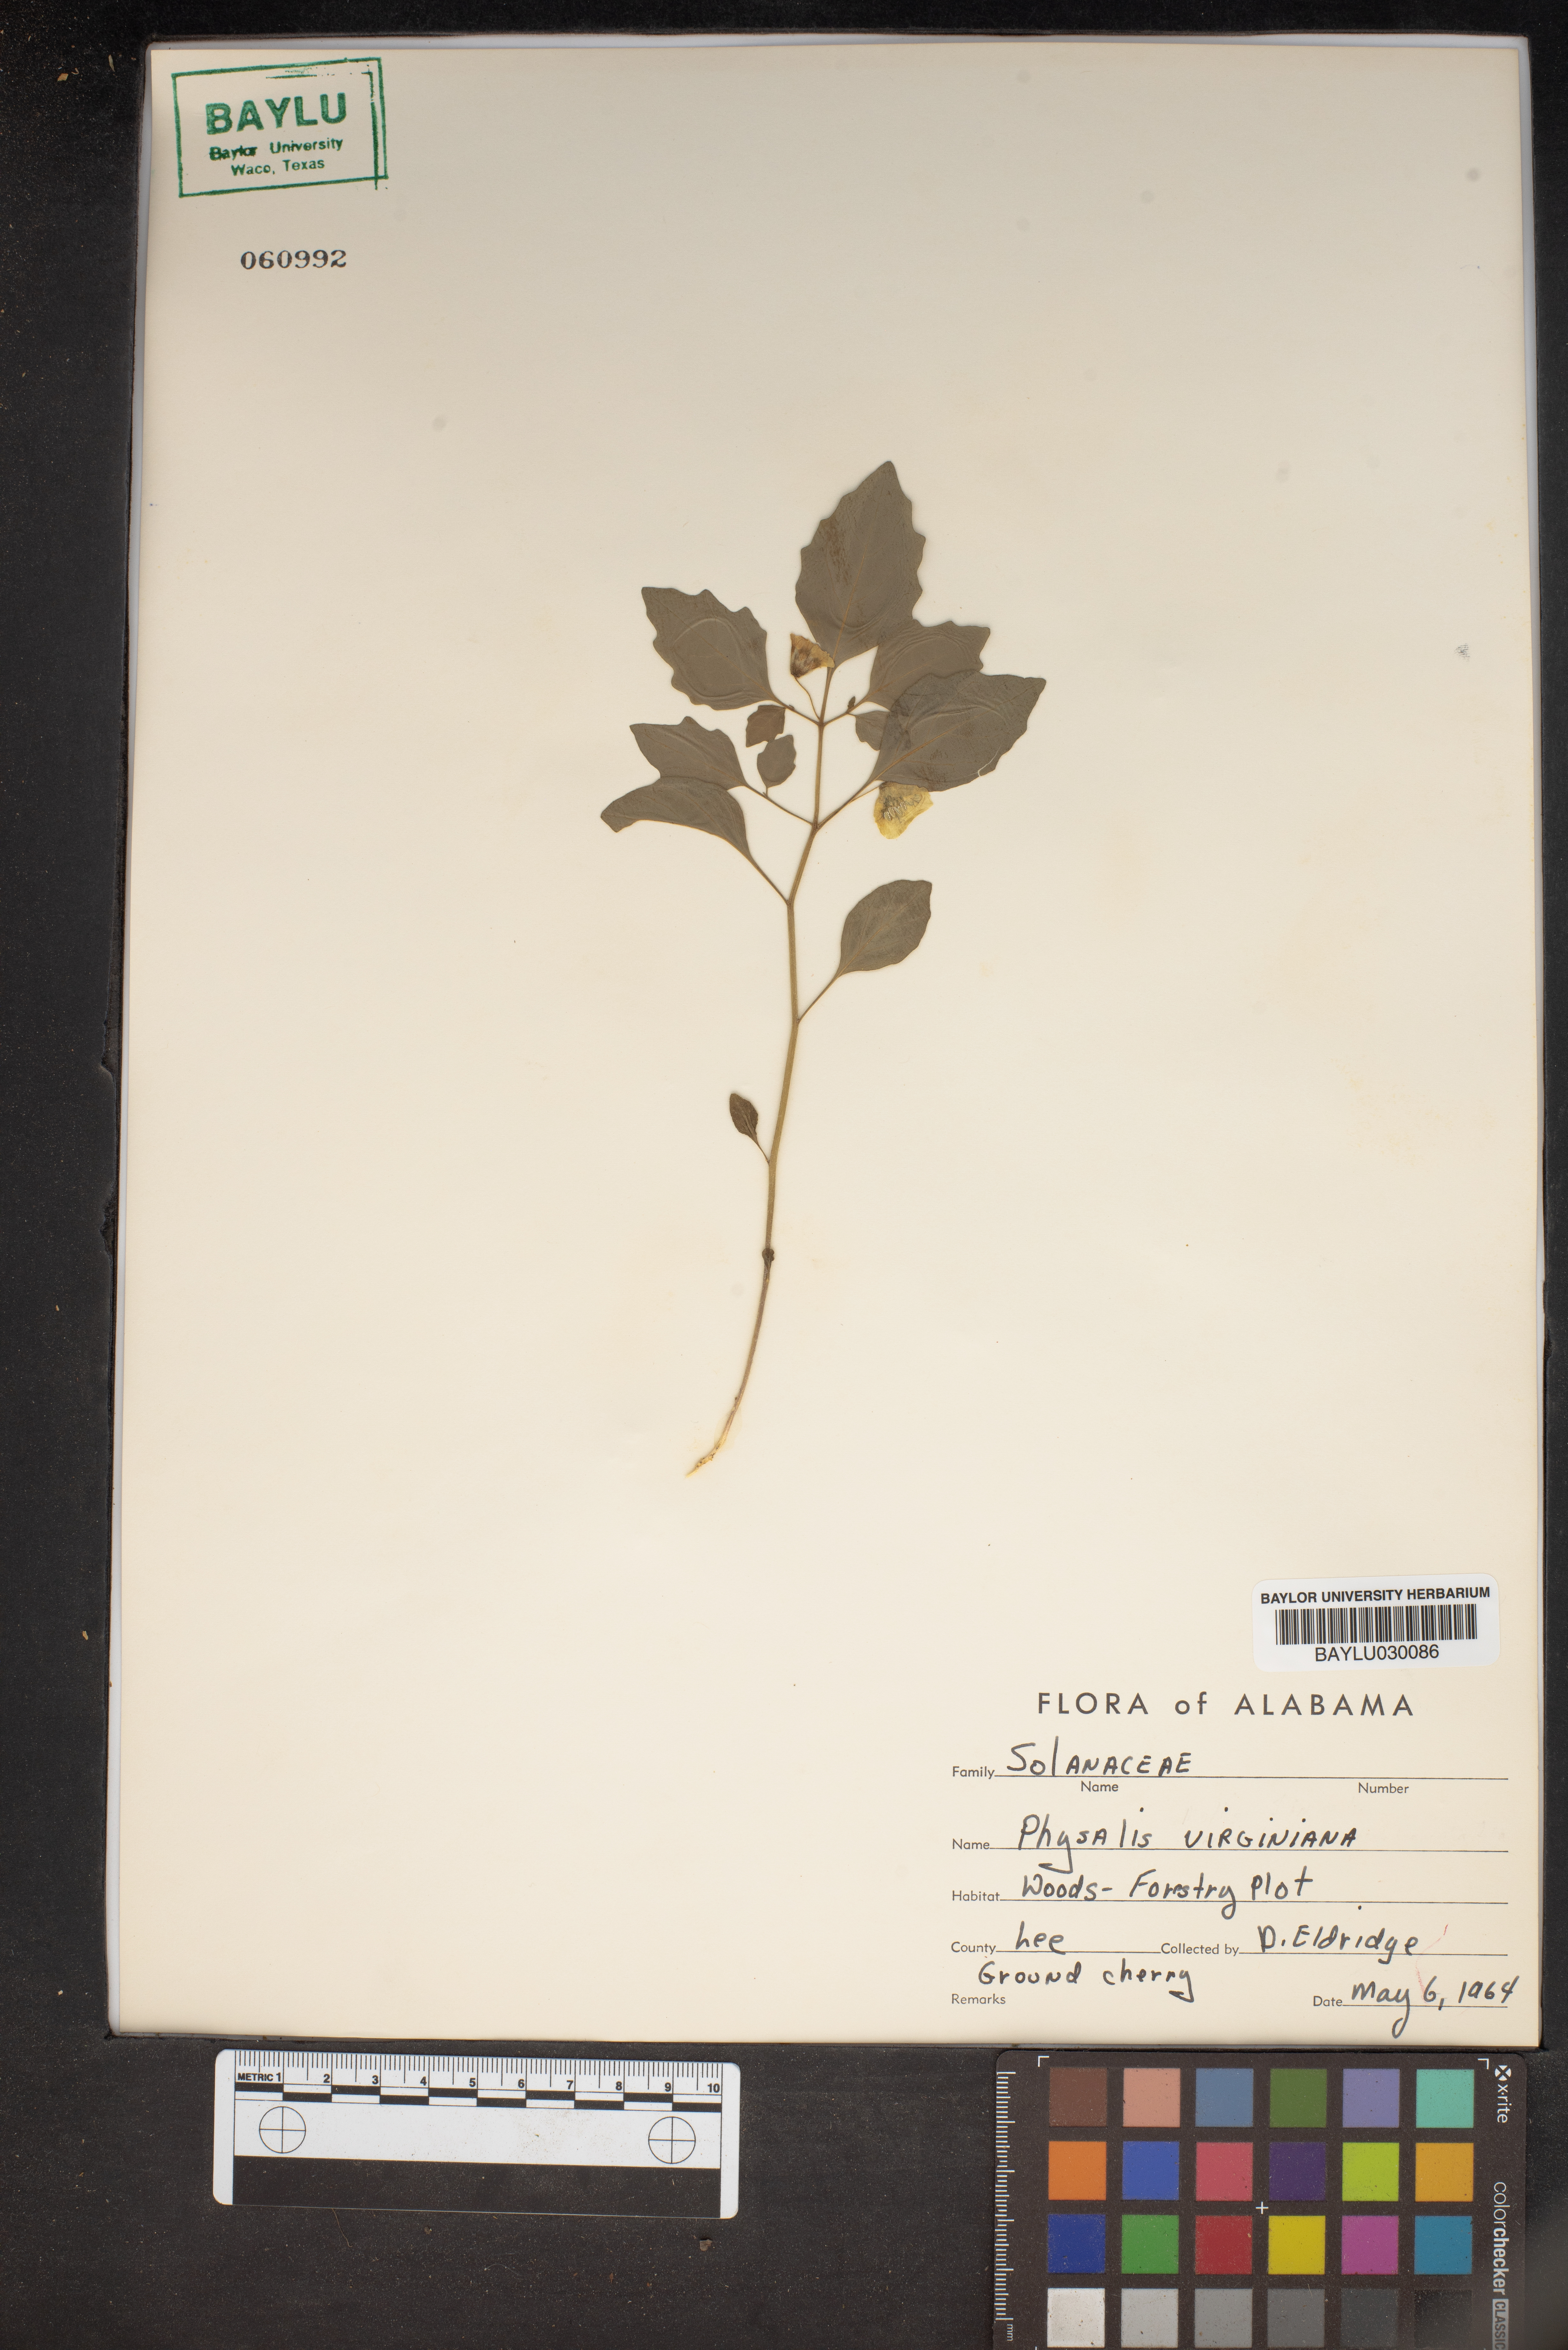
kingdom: Plantae
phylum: Tracheophyta
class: Magnoliopsida
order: Solanales
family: Solanaceae
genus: Physalis
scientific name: Physalis virginiana
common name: Virginia ground-cherry
